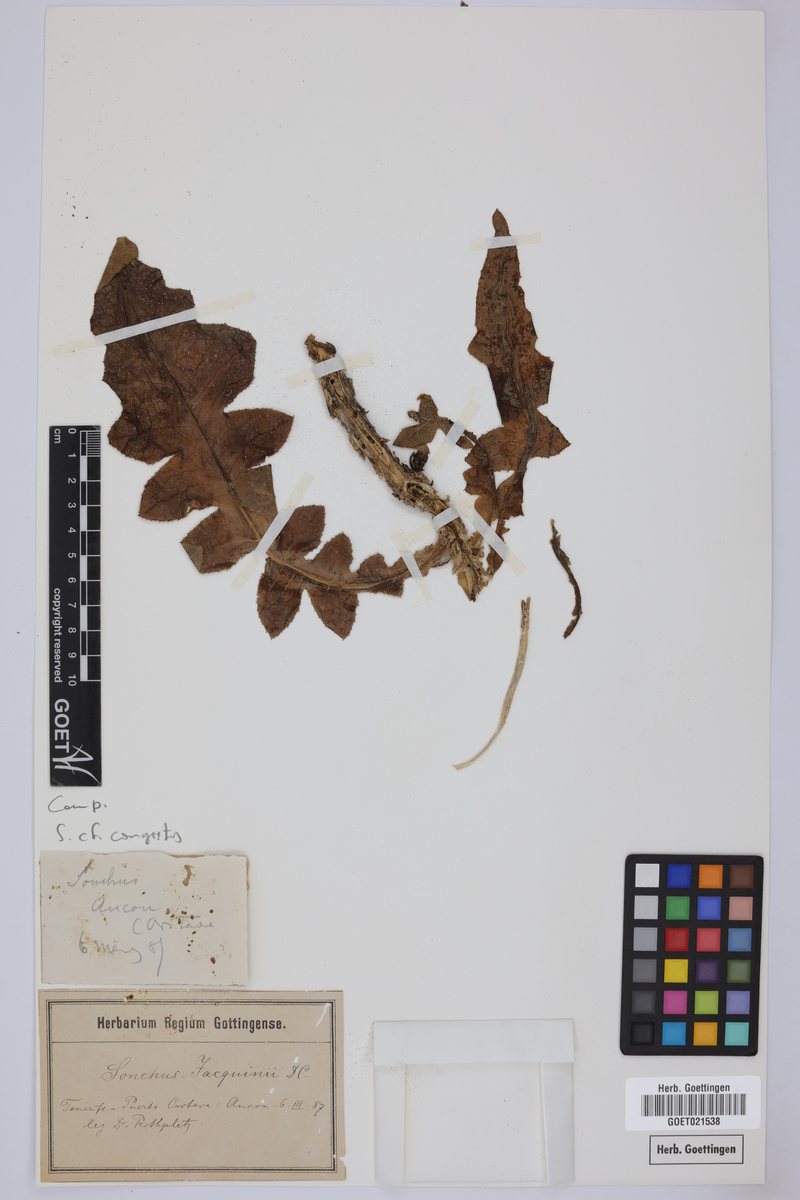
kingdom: Plantae
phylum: Tracheophyta
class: Magnoliopsida
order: Asterales
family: Asteraceae
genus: Sonchus
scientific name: Sonchus congestus
